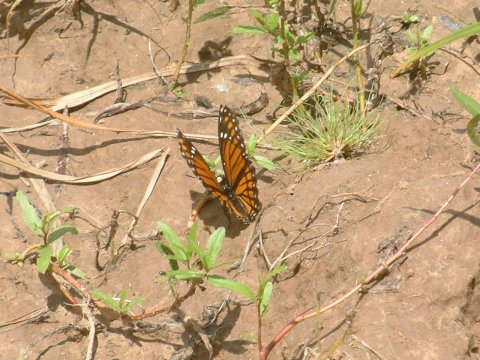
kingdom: Animalia
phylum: Arthropoda
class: Insecta
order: Lepidoptera
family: Nymphalidae
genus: Limenitis
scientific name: Limenitis archippus
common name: Viceroy
